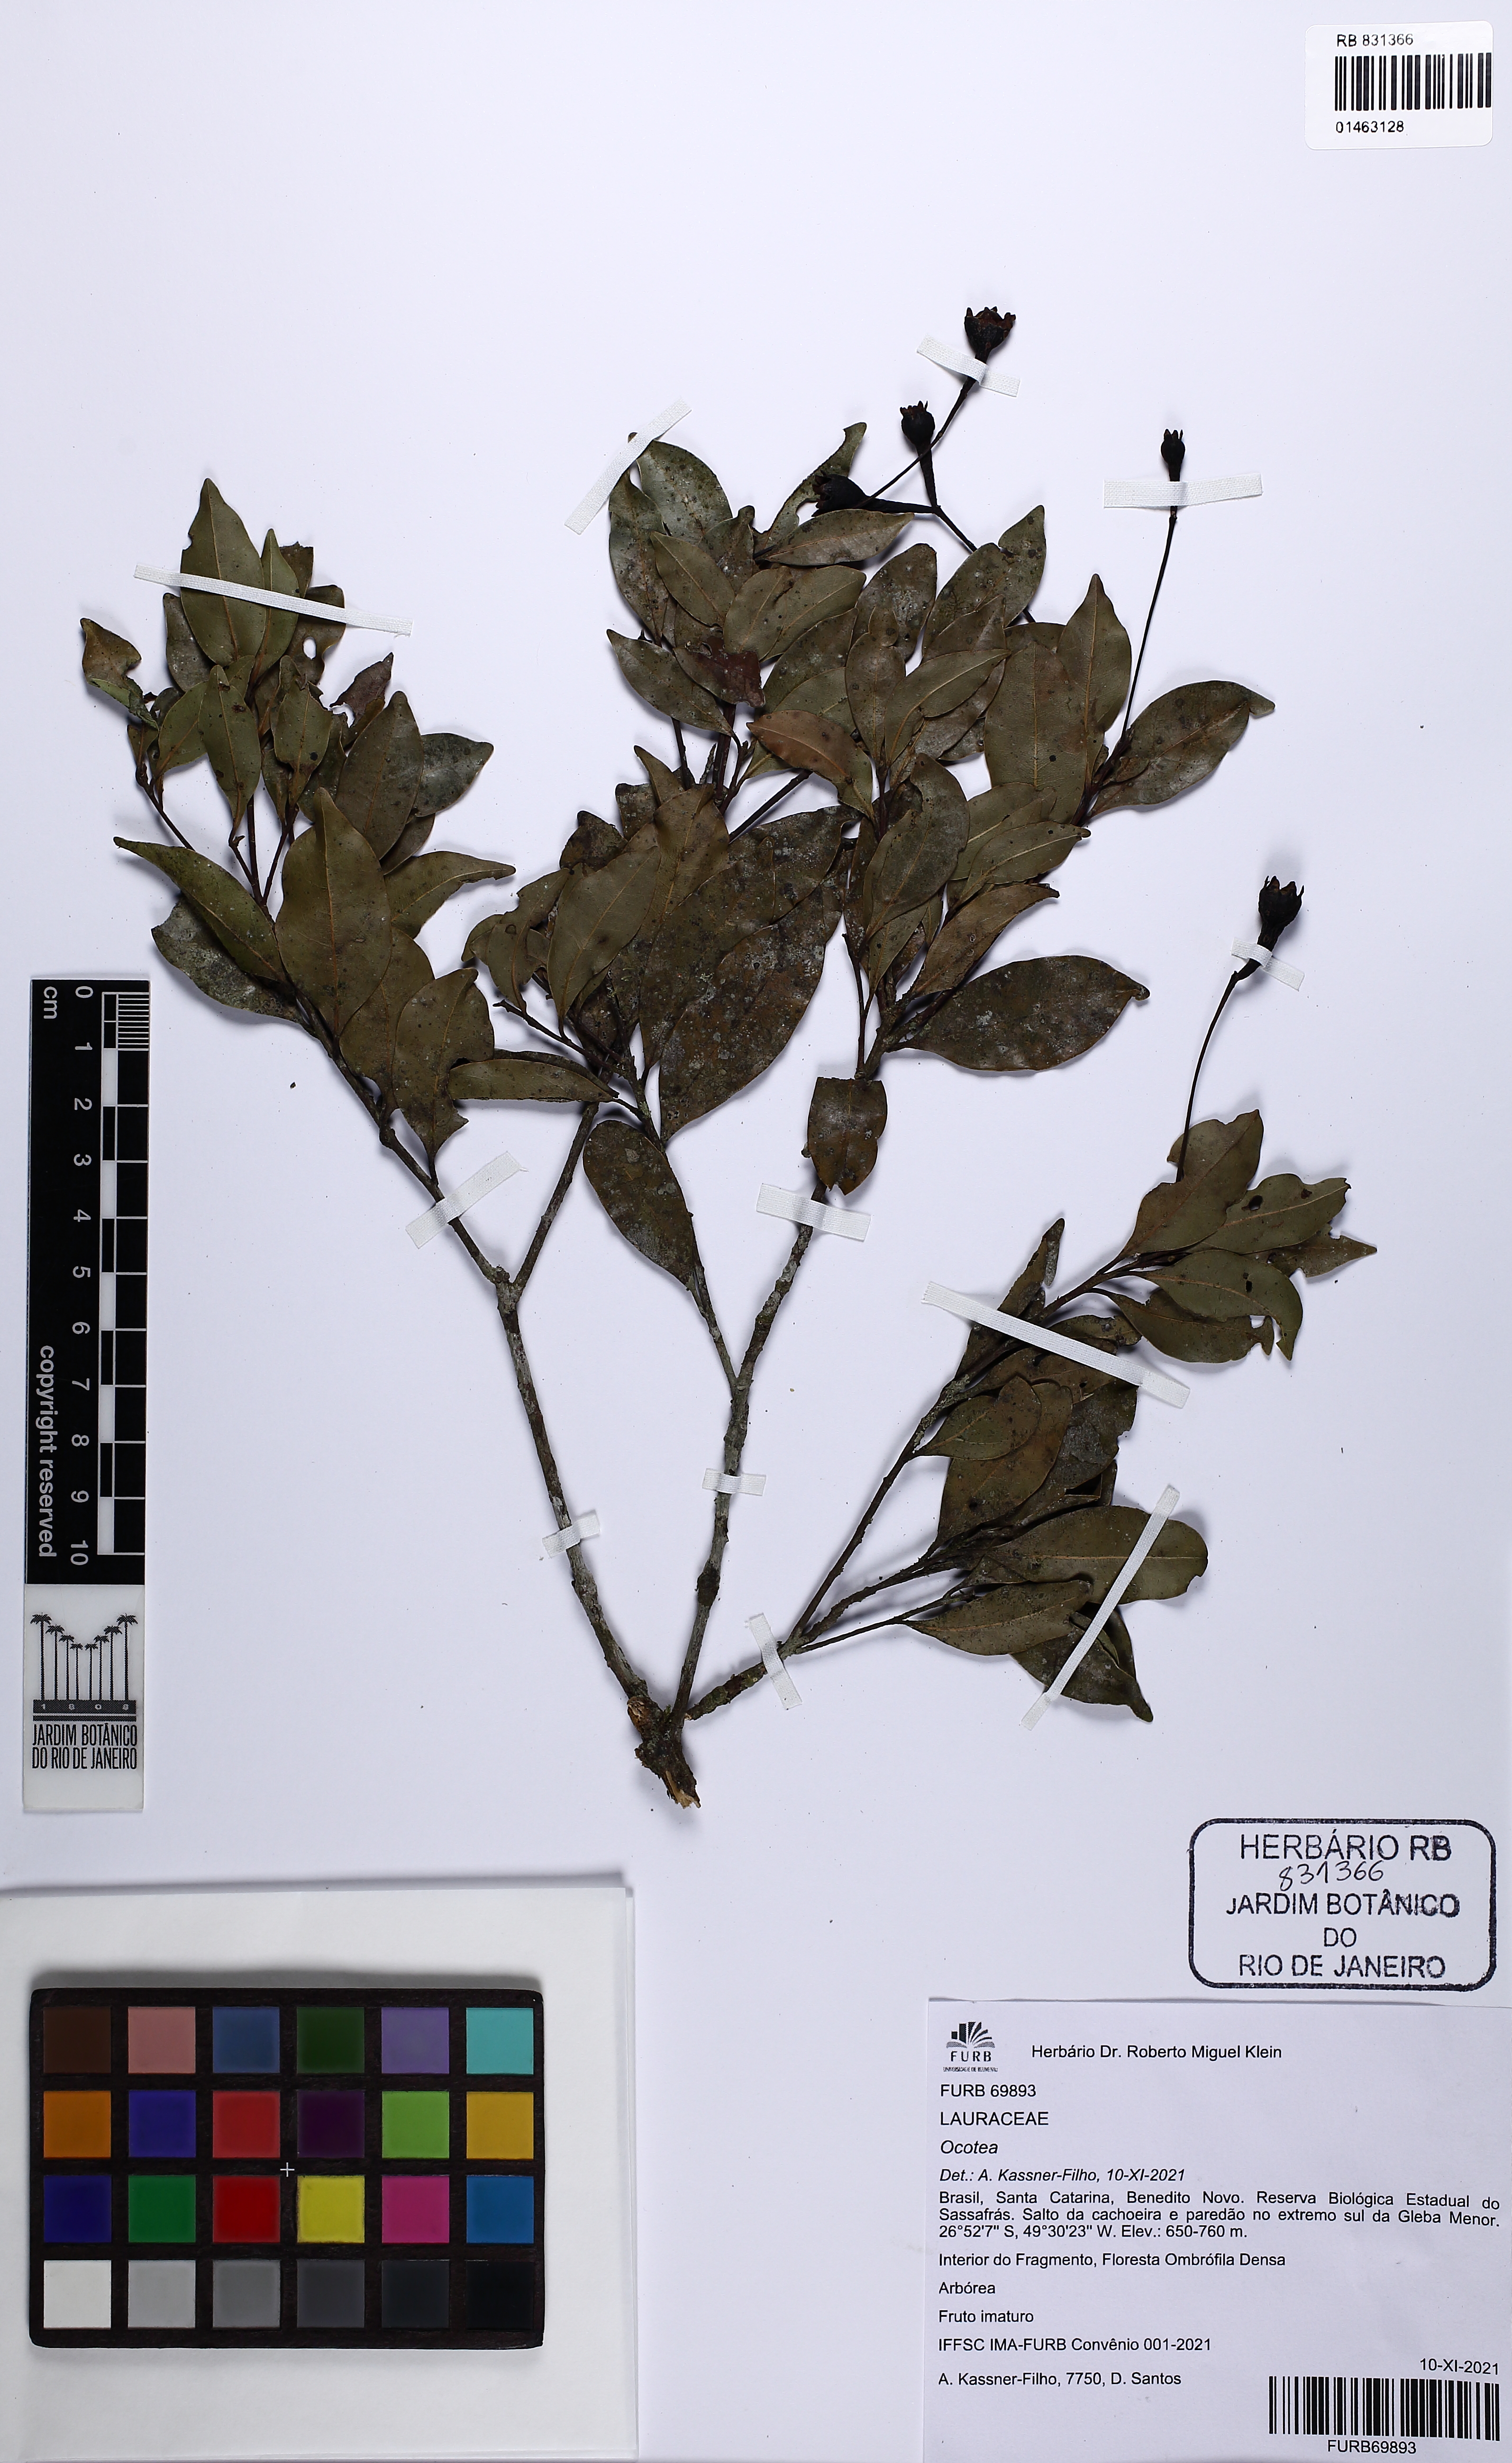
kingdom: Plantae
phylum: Tracheophyta
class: Magnoliopsida
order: Laurales
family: Lauraceae
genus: Ocotea
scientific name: Ocotea
